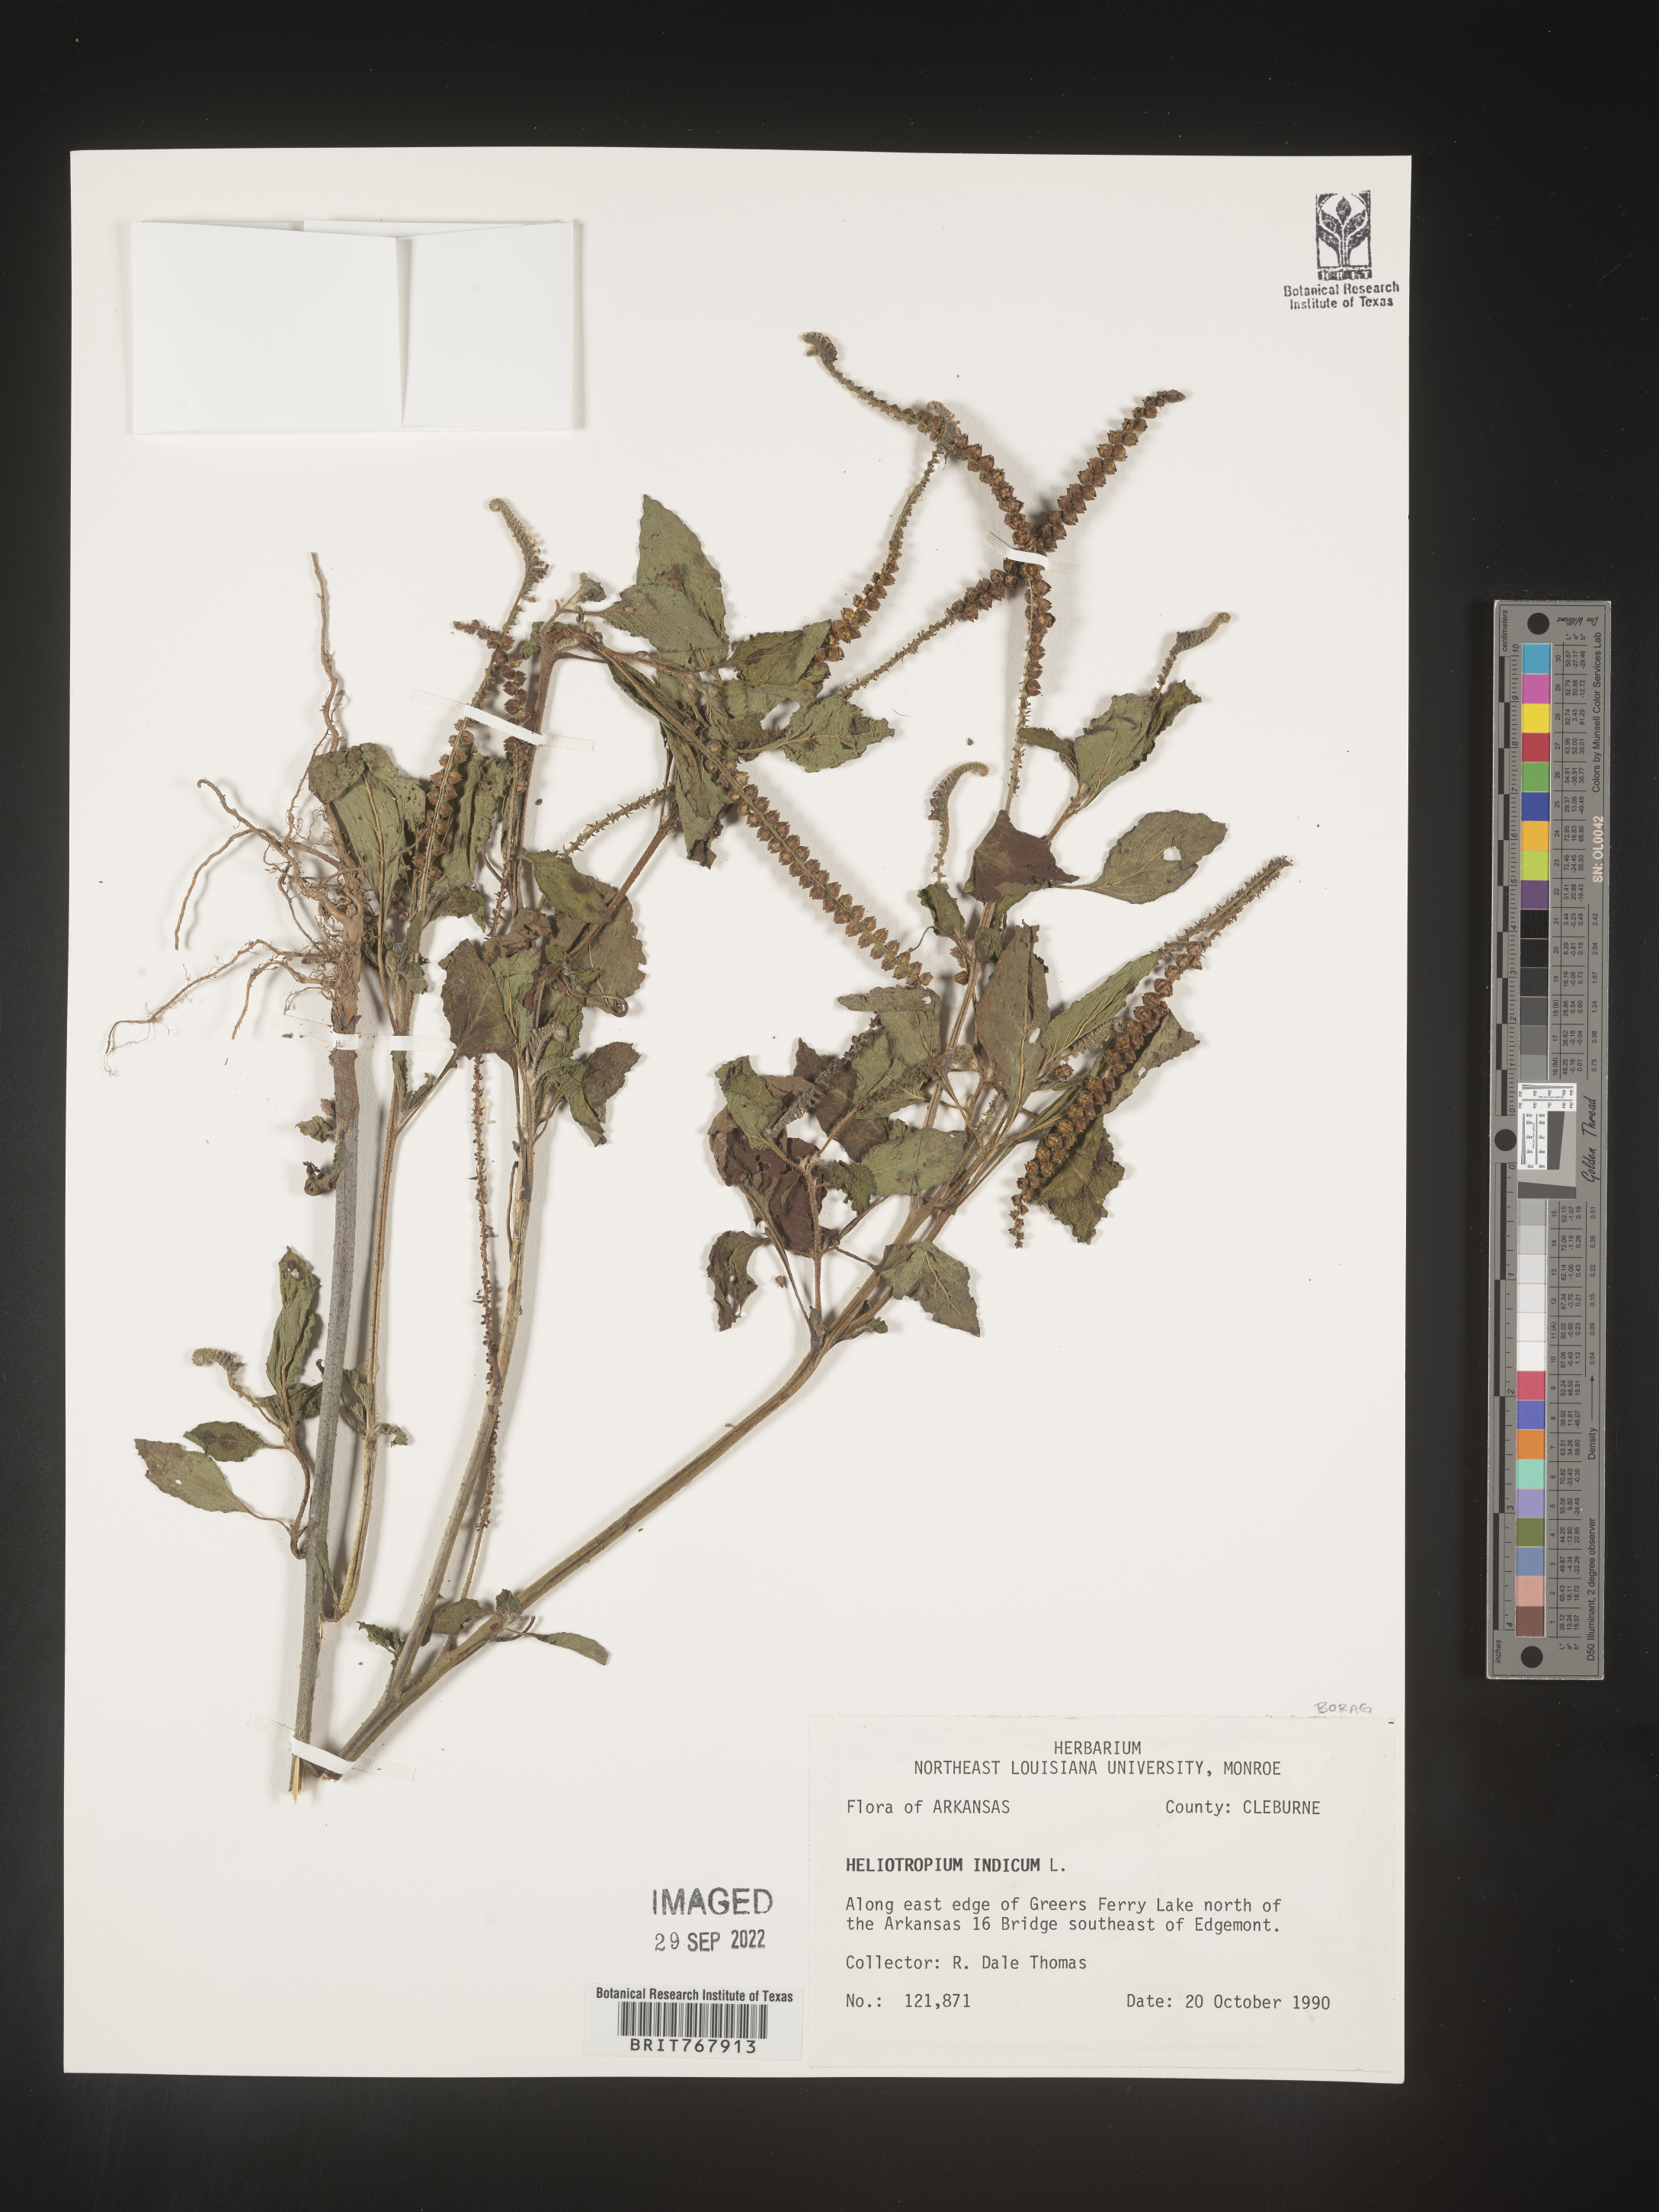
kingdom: Plantae
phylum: Tracheophyta
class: Magnoliopsida
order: Boraginales
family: Heliotropiaceae
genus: Heliotropium
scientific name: Heliotropium indicum
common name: Indian heliotrope
